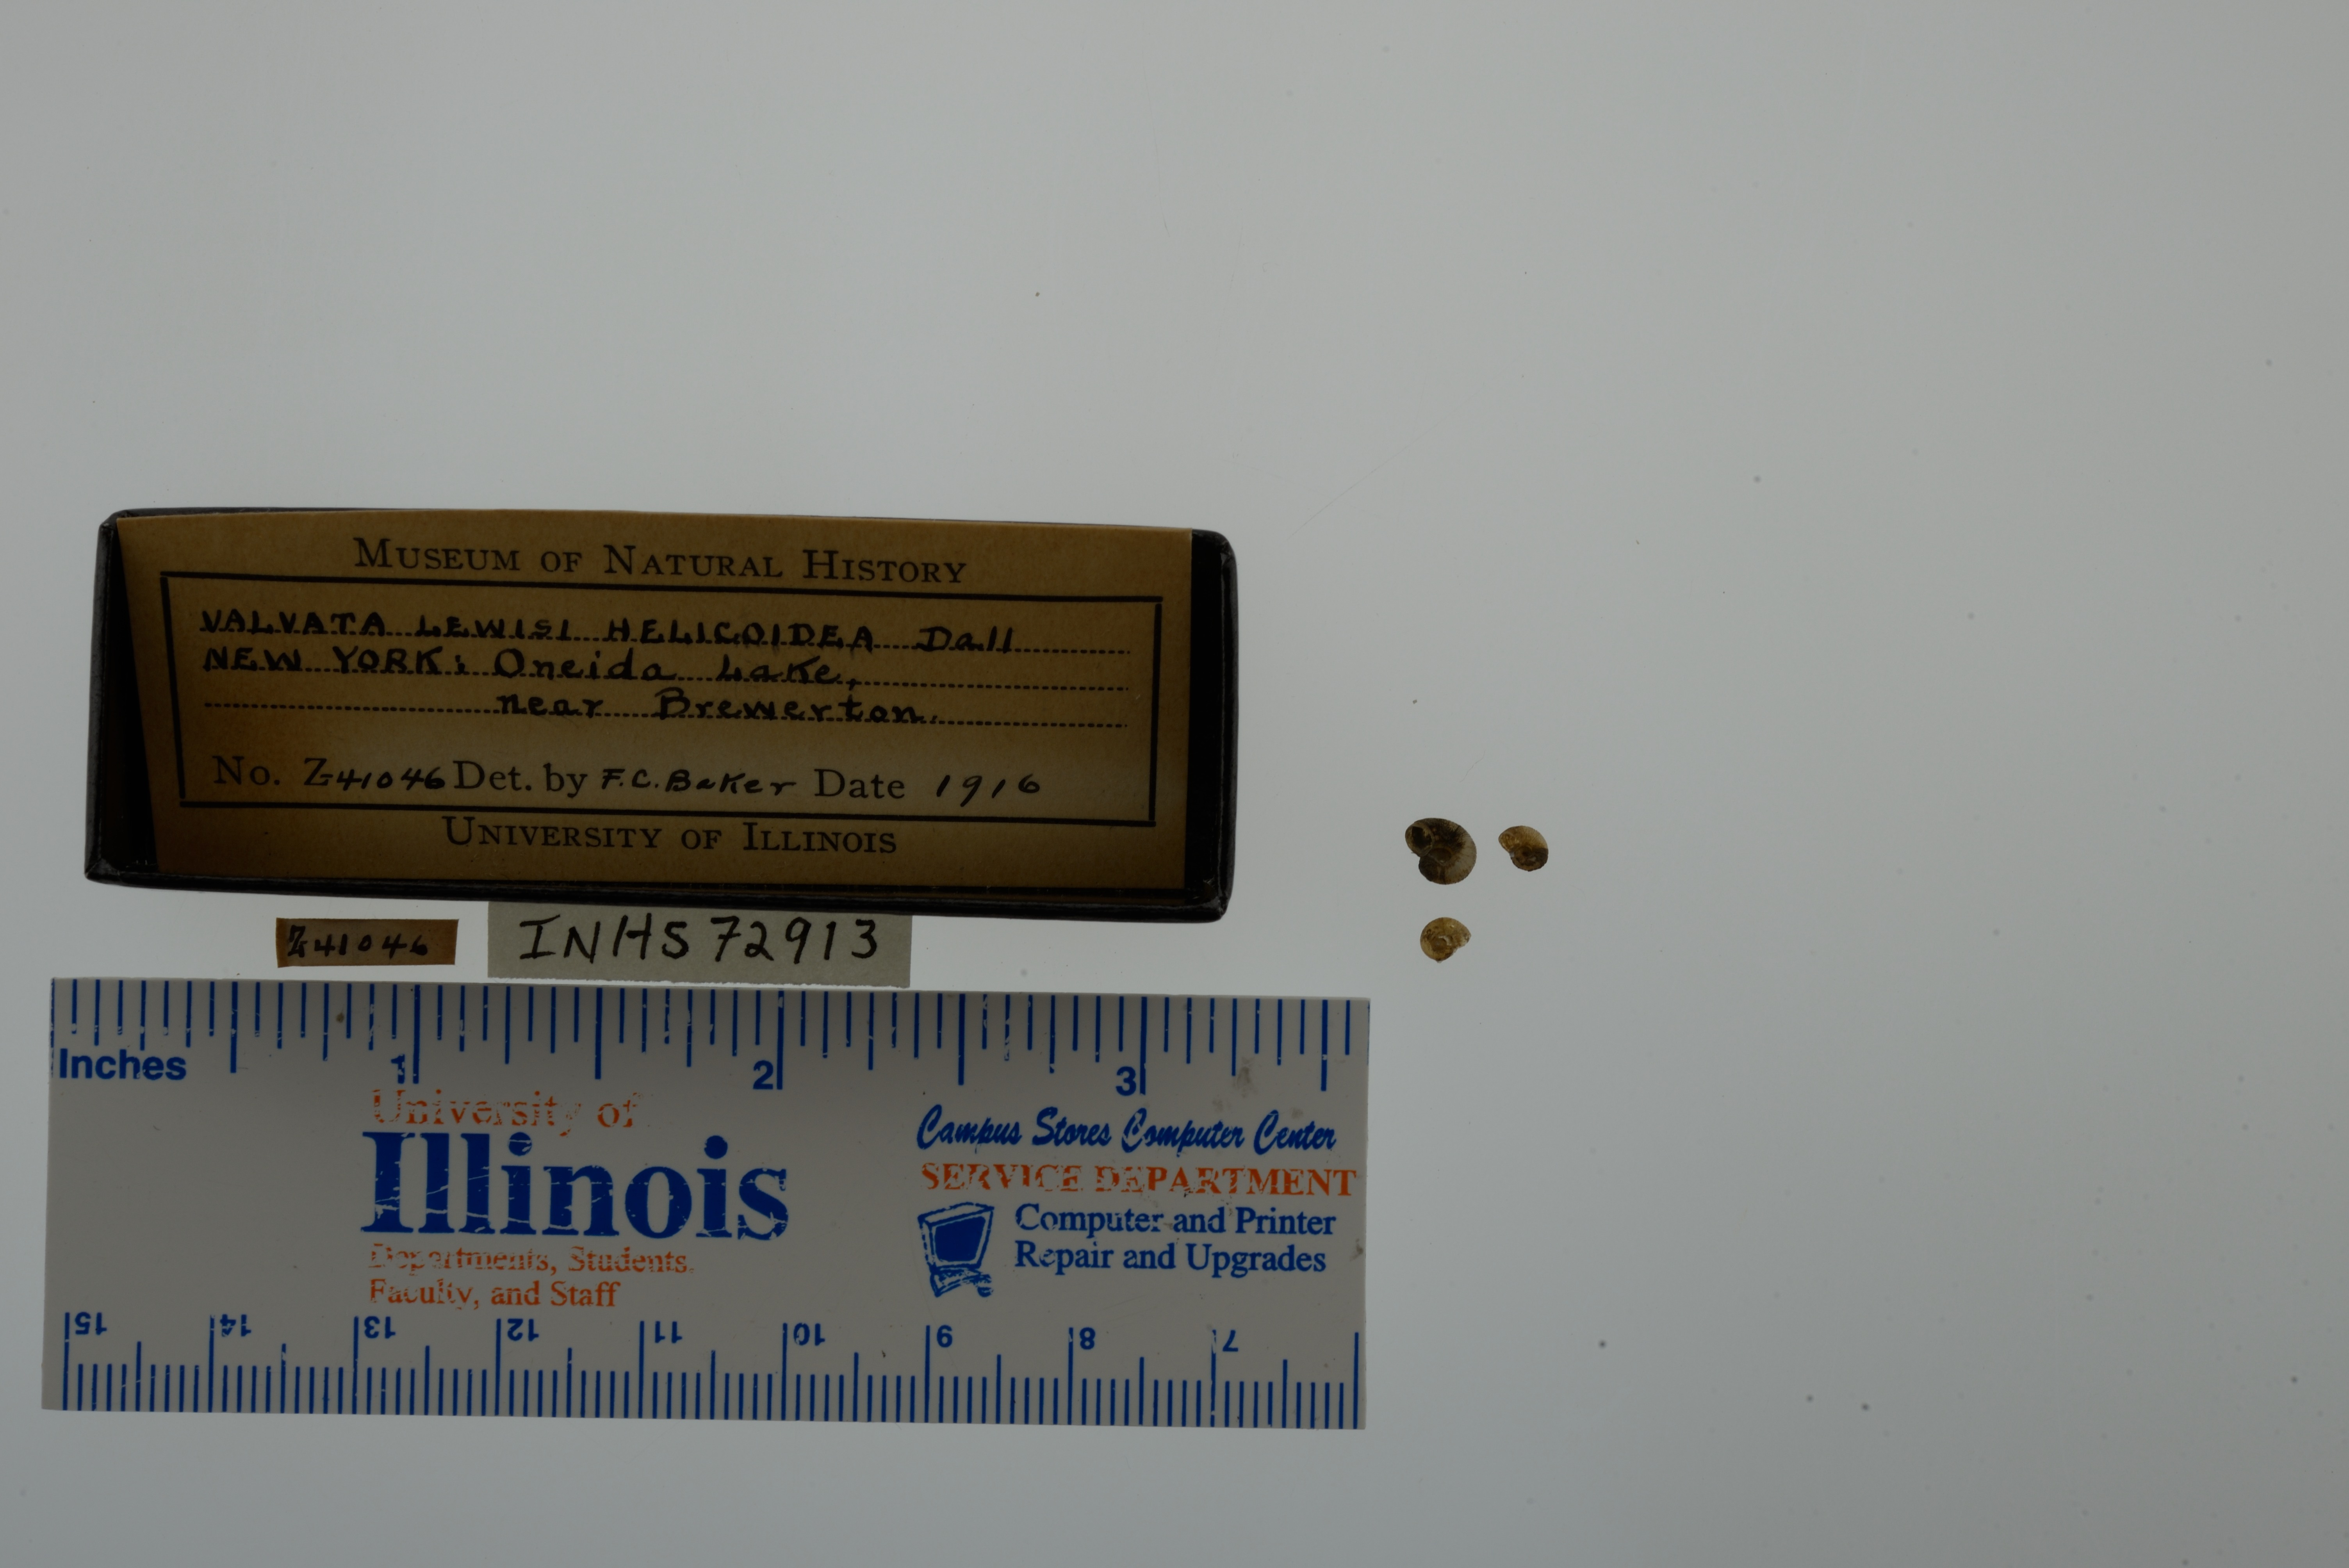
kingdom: Animalia
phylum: Mollusca
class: Gastropoda
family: Valvatidae
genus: Valvata
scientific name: Valvata lewisi
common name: Fringed valvata
